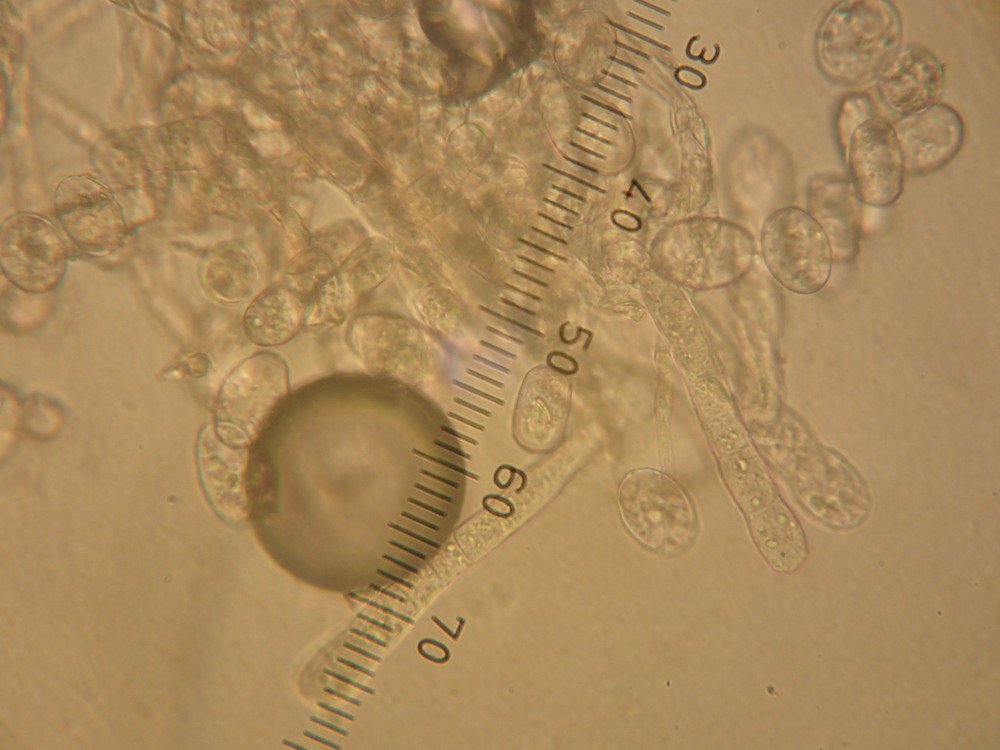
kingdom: Fungi
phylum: Ascomycota
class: Leotiomycetes
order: Helotiales
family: Erysiphaceae
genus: Podosphaera
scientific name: Podosphaera epilobii
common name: dueurt-meldug
